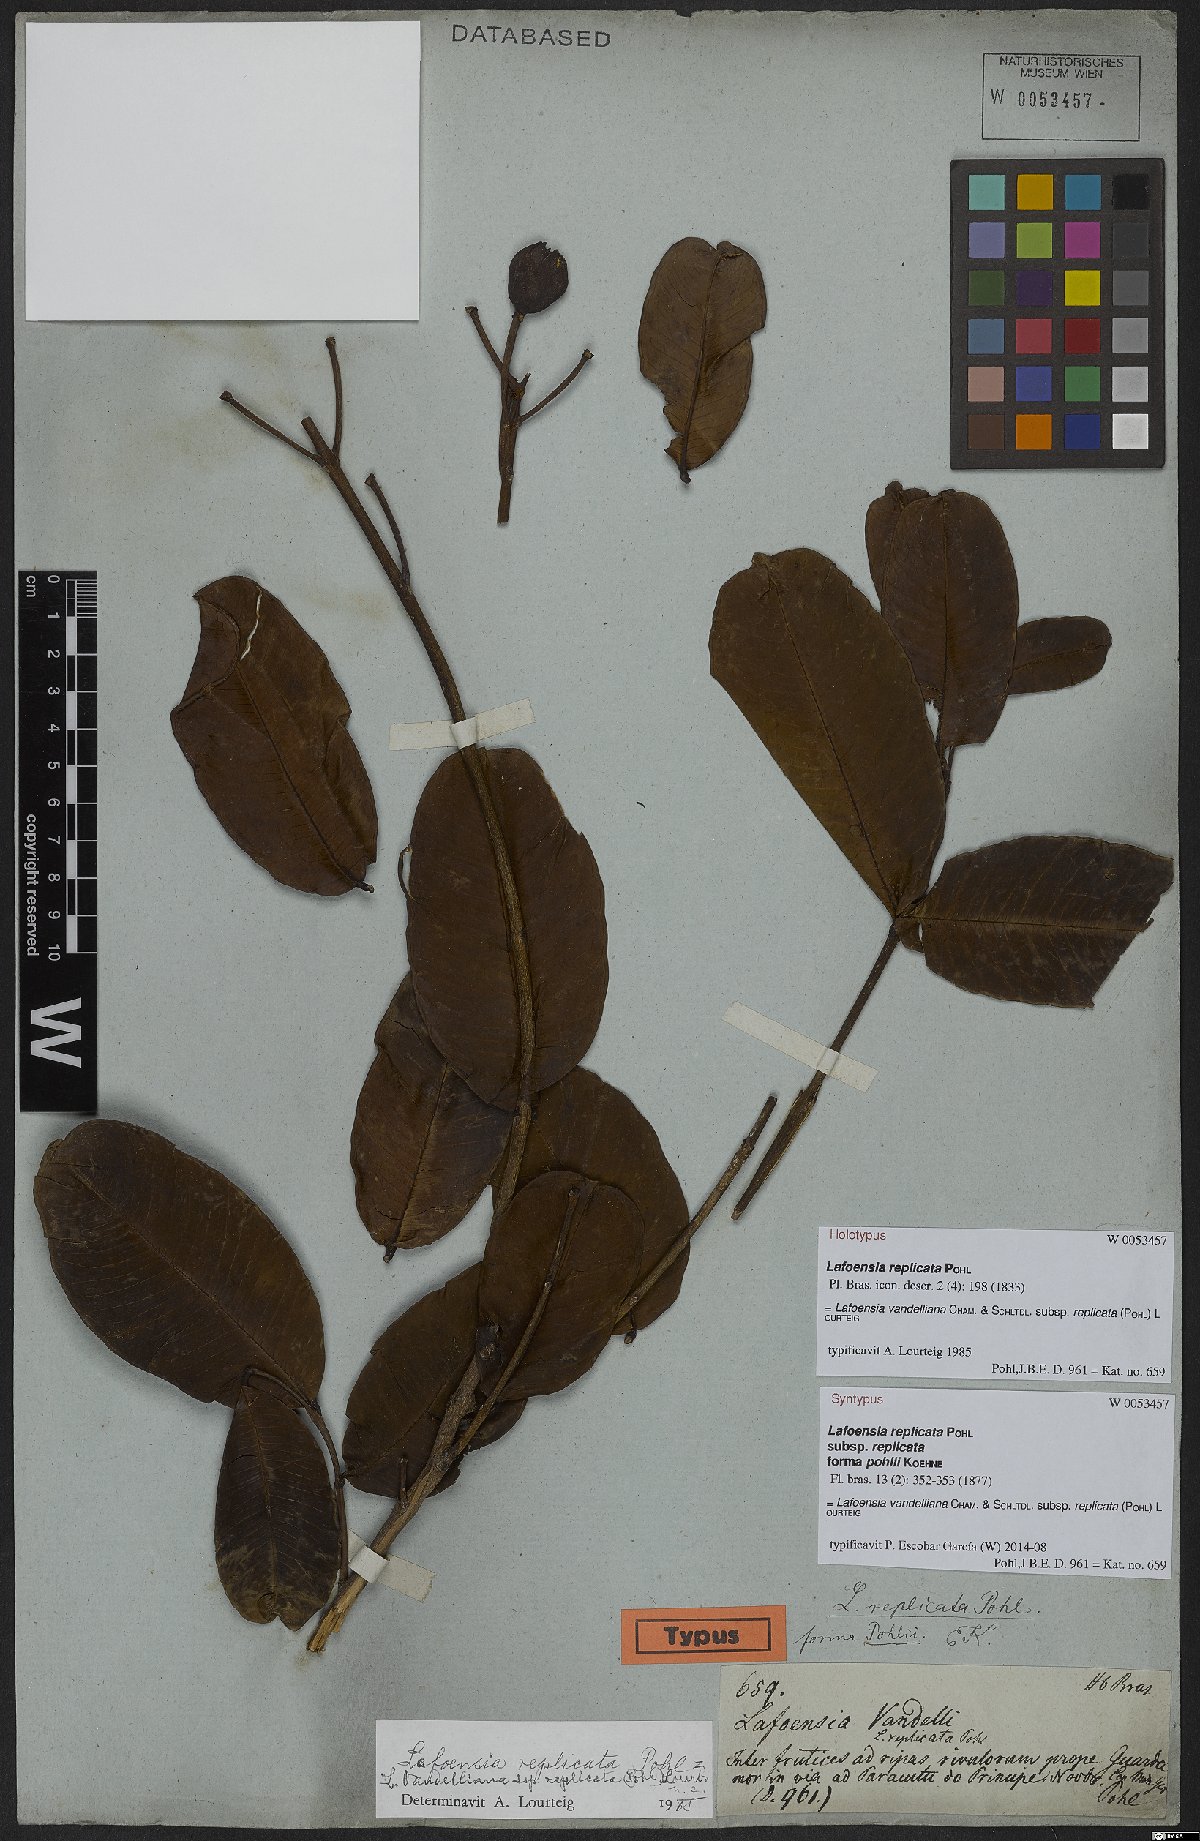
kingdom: Plantae
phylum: Tracheophyta
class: Magnoliopsida
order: Myrtales
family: Lythraceae
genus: Lafoensia
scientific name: Lafoensia vandelliana
